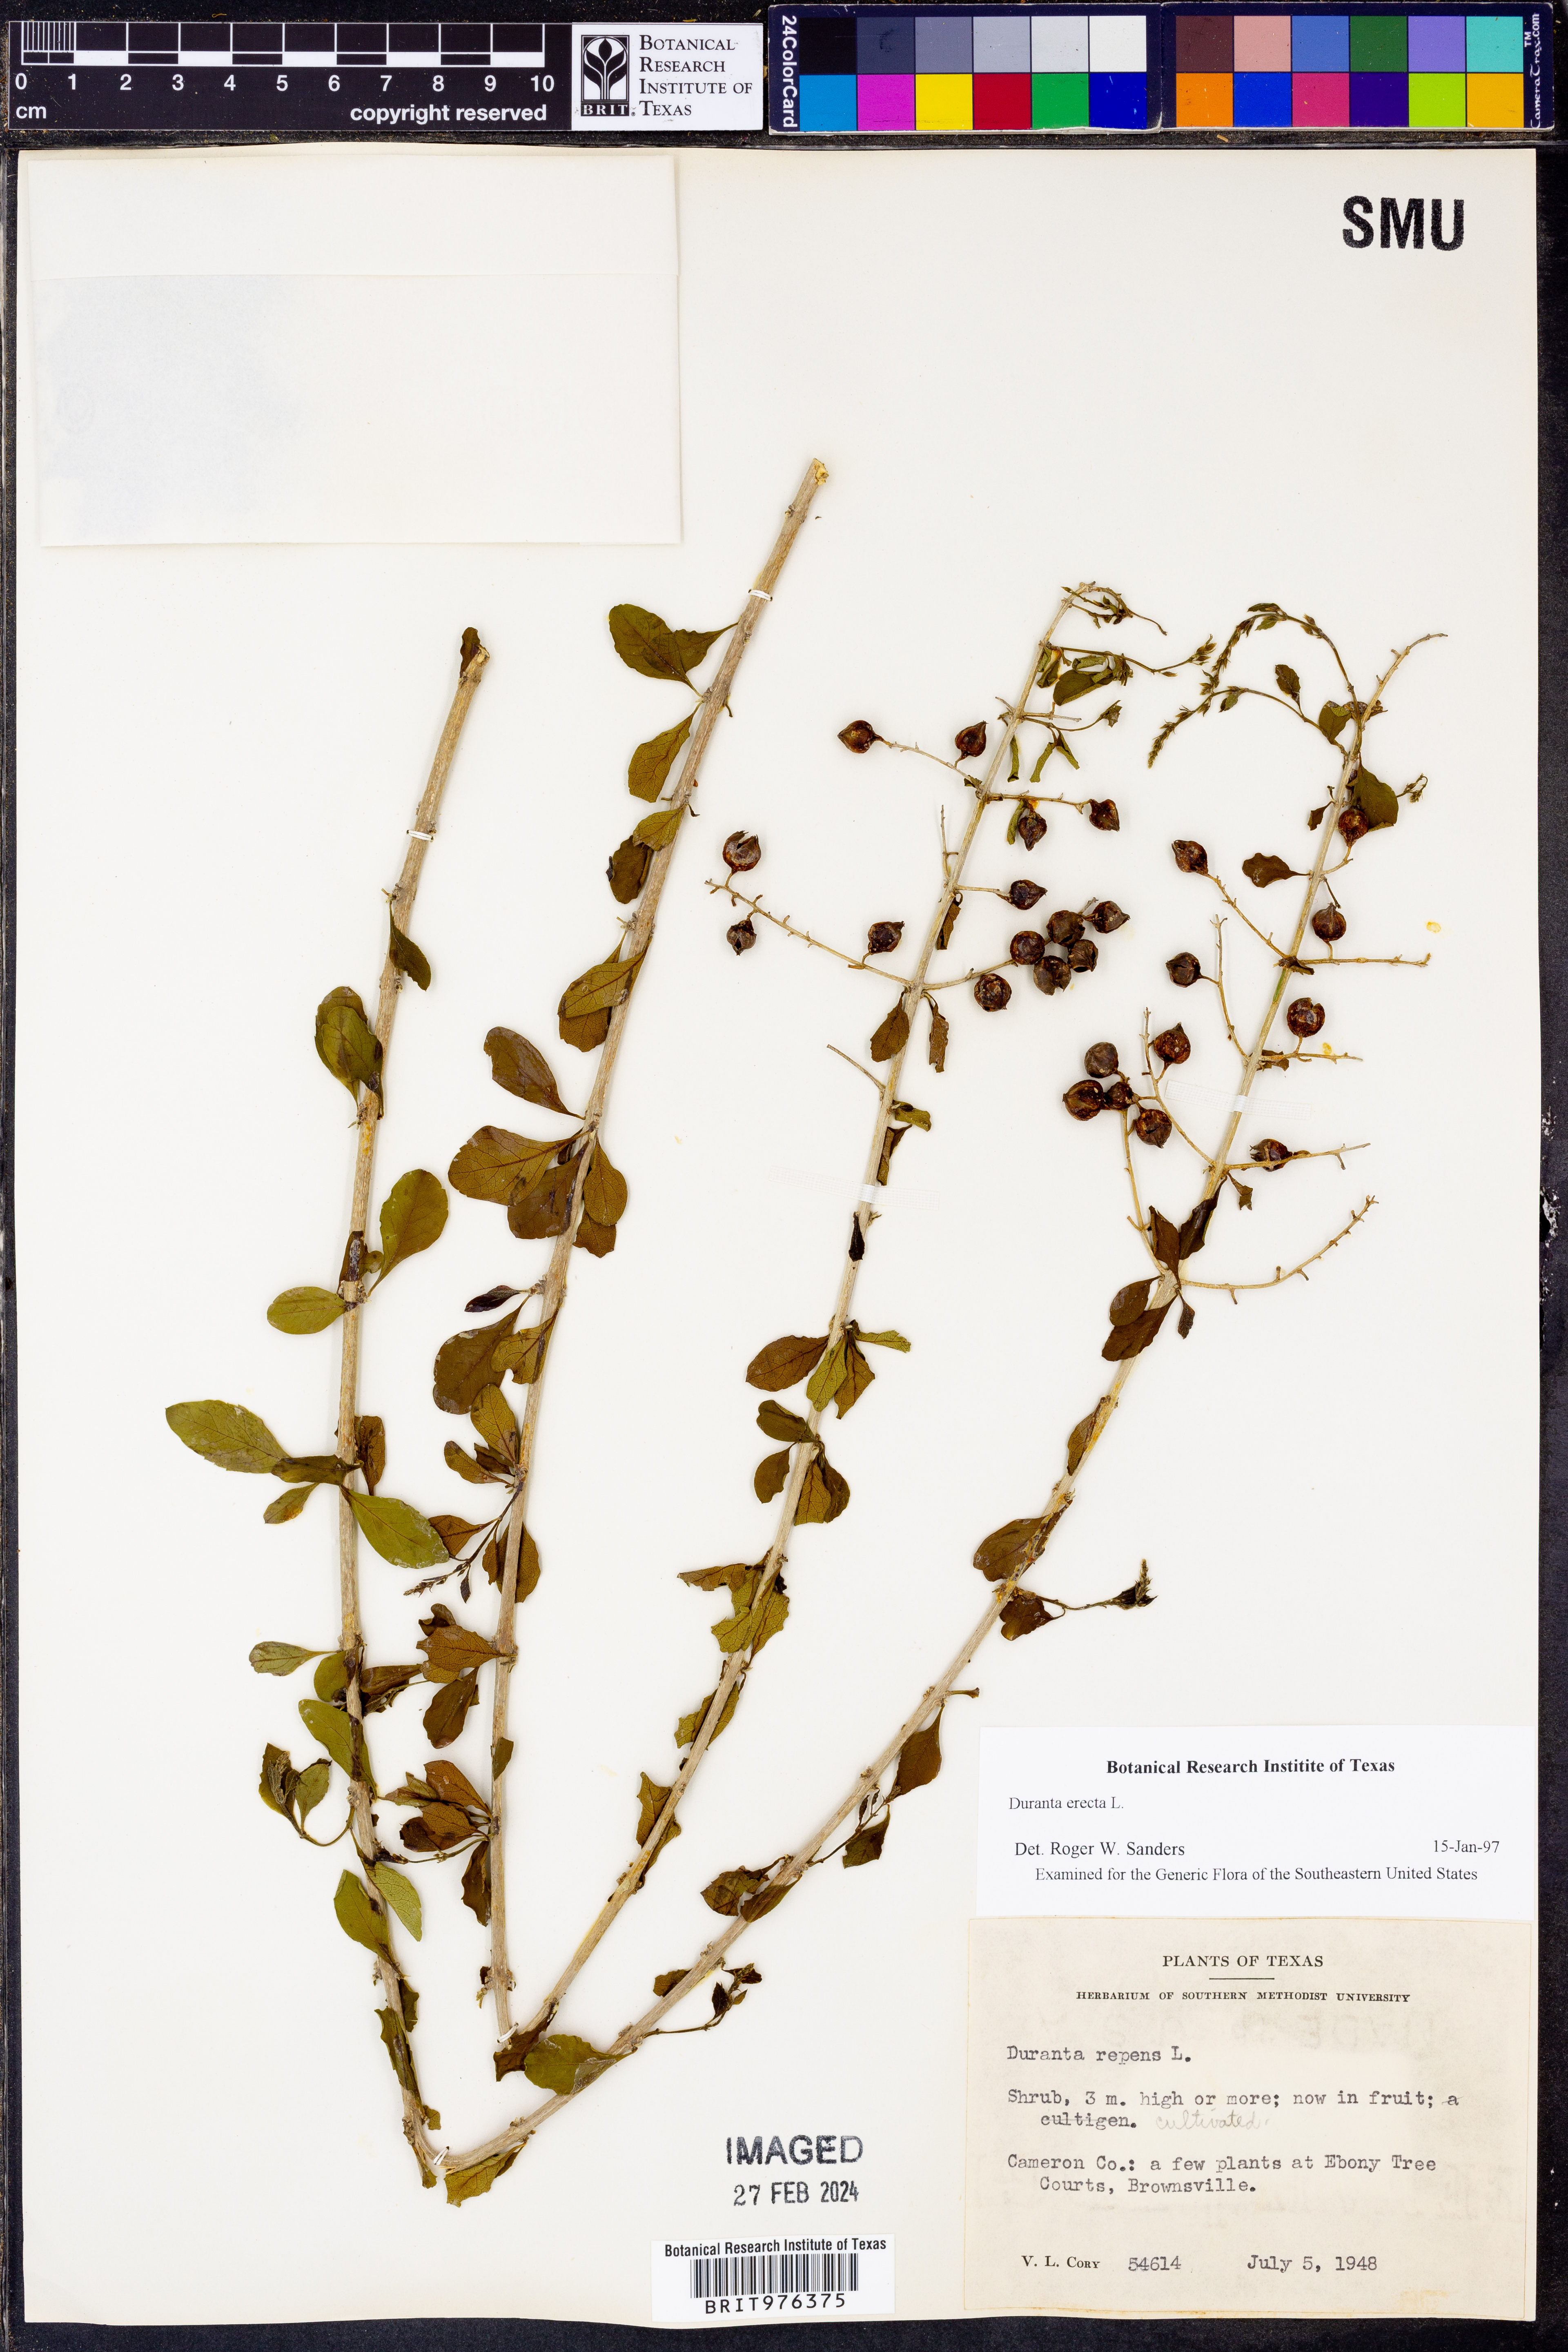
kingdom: Plantae
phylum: Tracheophyta
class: Magnoliopsida
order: Lamiales
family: Verbenaceae
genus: Duranta
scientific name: Duranta
